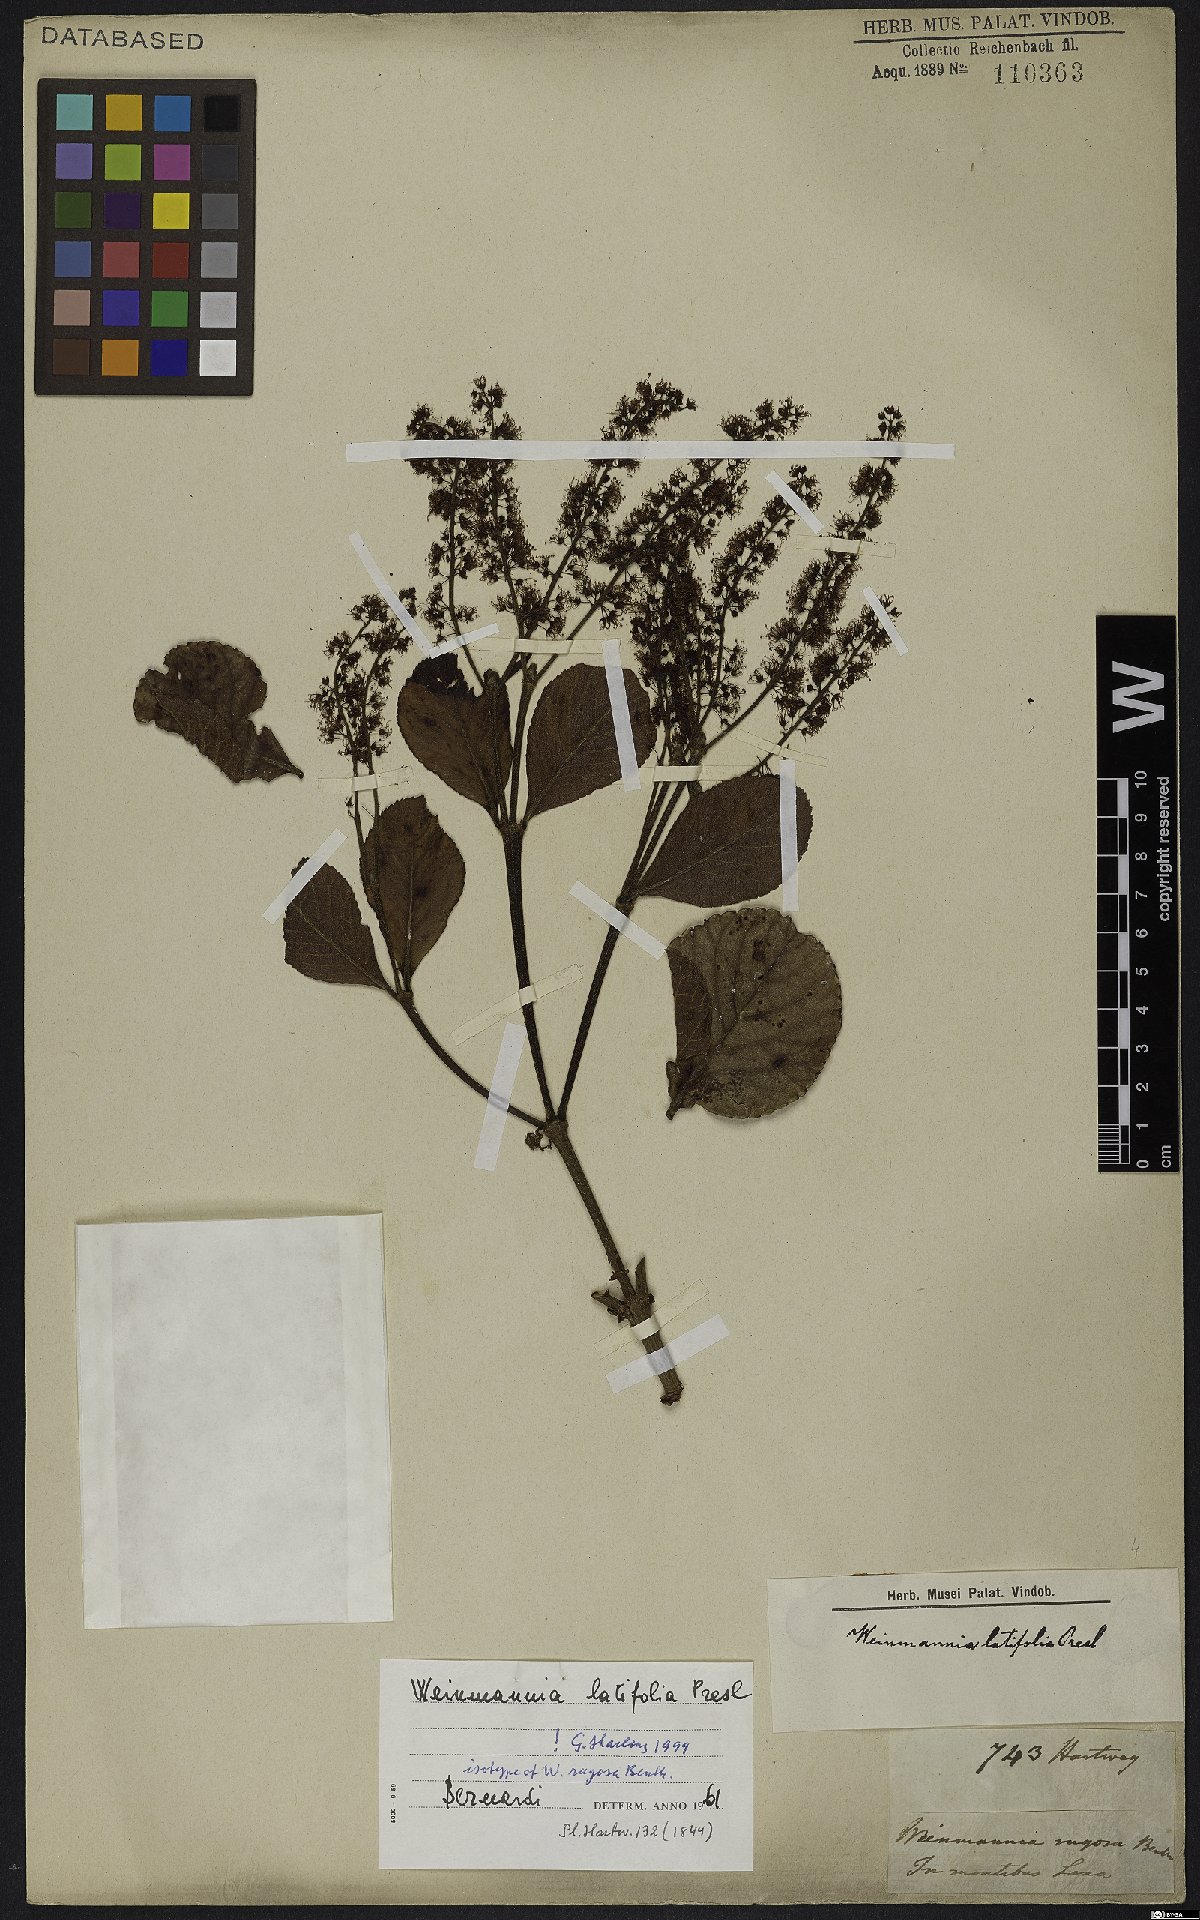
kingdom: Plantae
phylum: Tracheophyta
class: Magnoliopsida
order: Oxalidales
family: Cunoniaceae
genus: Weinmannia
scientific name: Weinmannia latifolia
